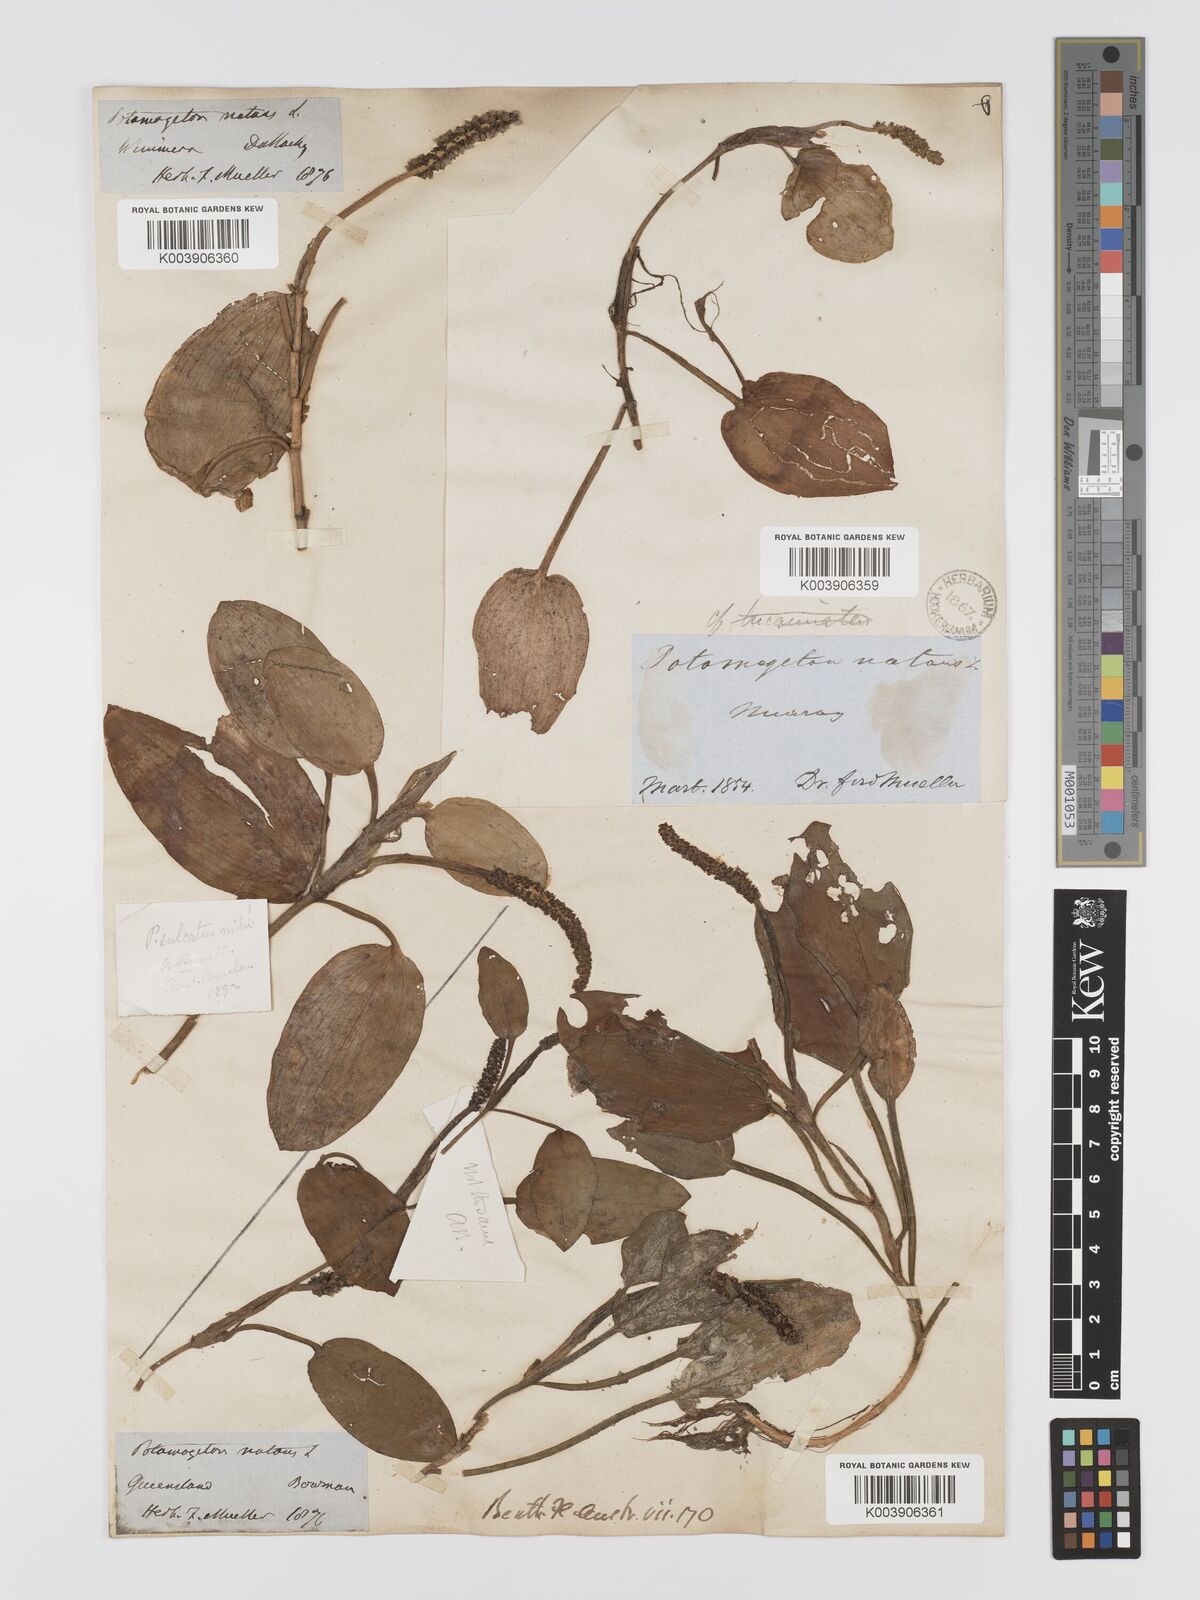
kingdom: Plantae
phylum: Tracheophyta
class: Liliopsida
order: Alismatales
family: Potamogetonaceae
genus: Potamogeton
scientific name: Potamogeton sulcatus
